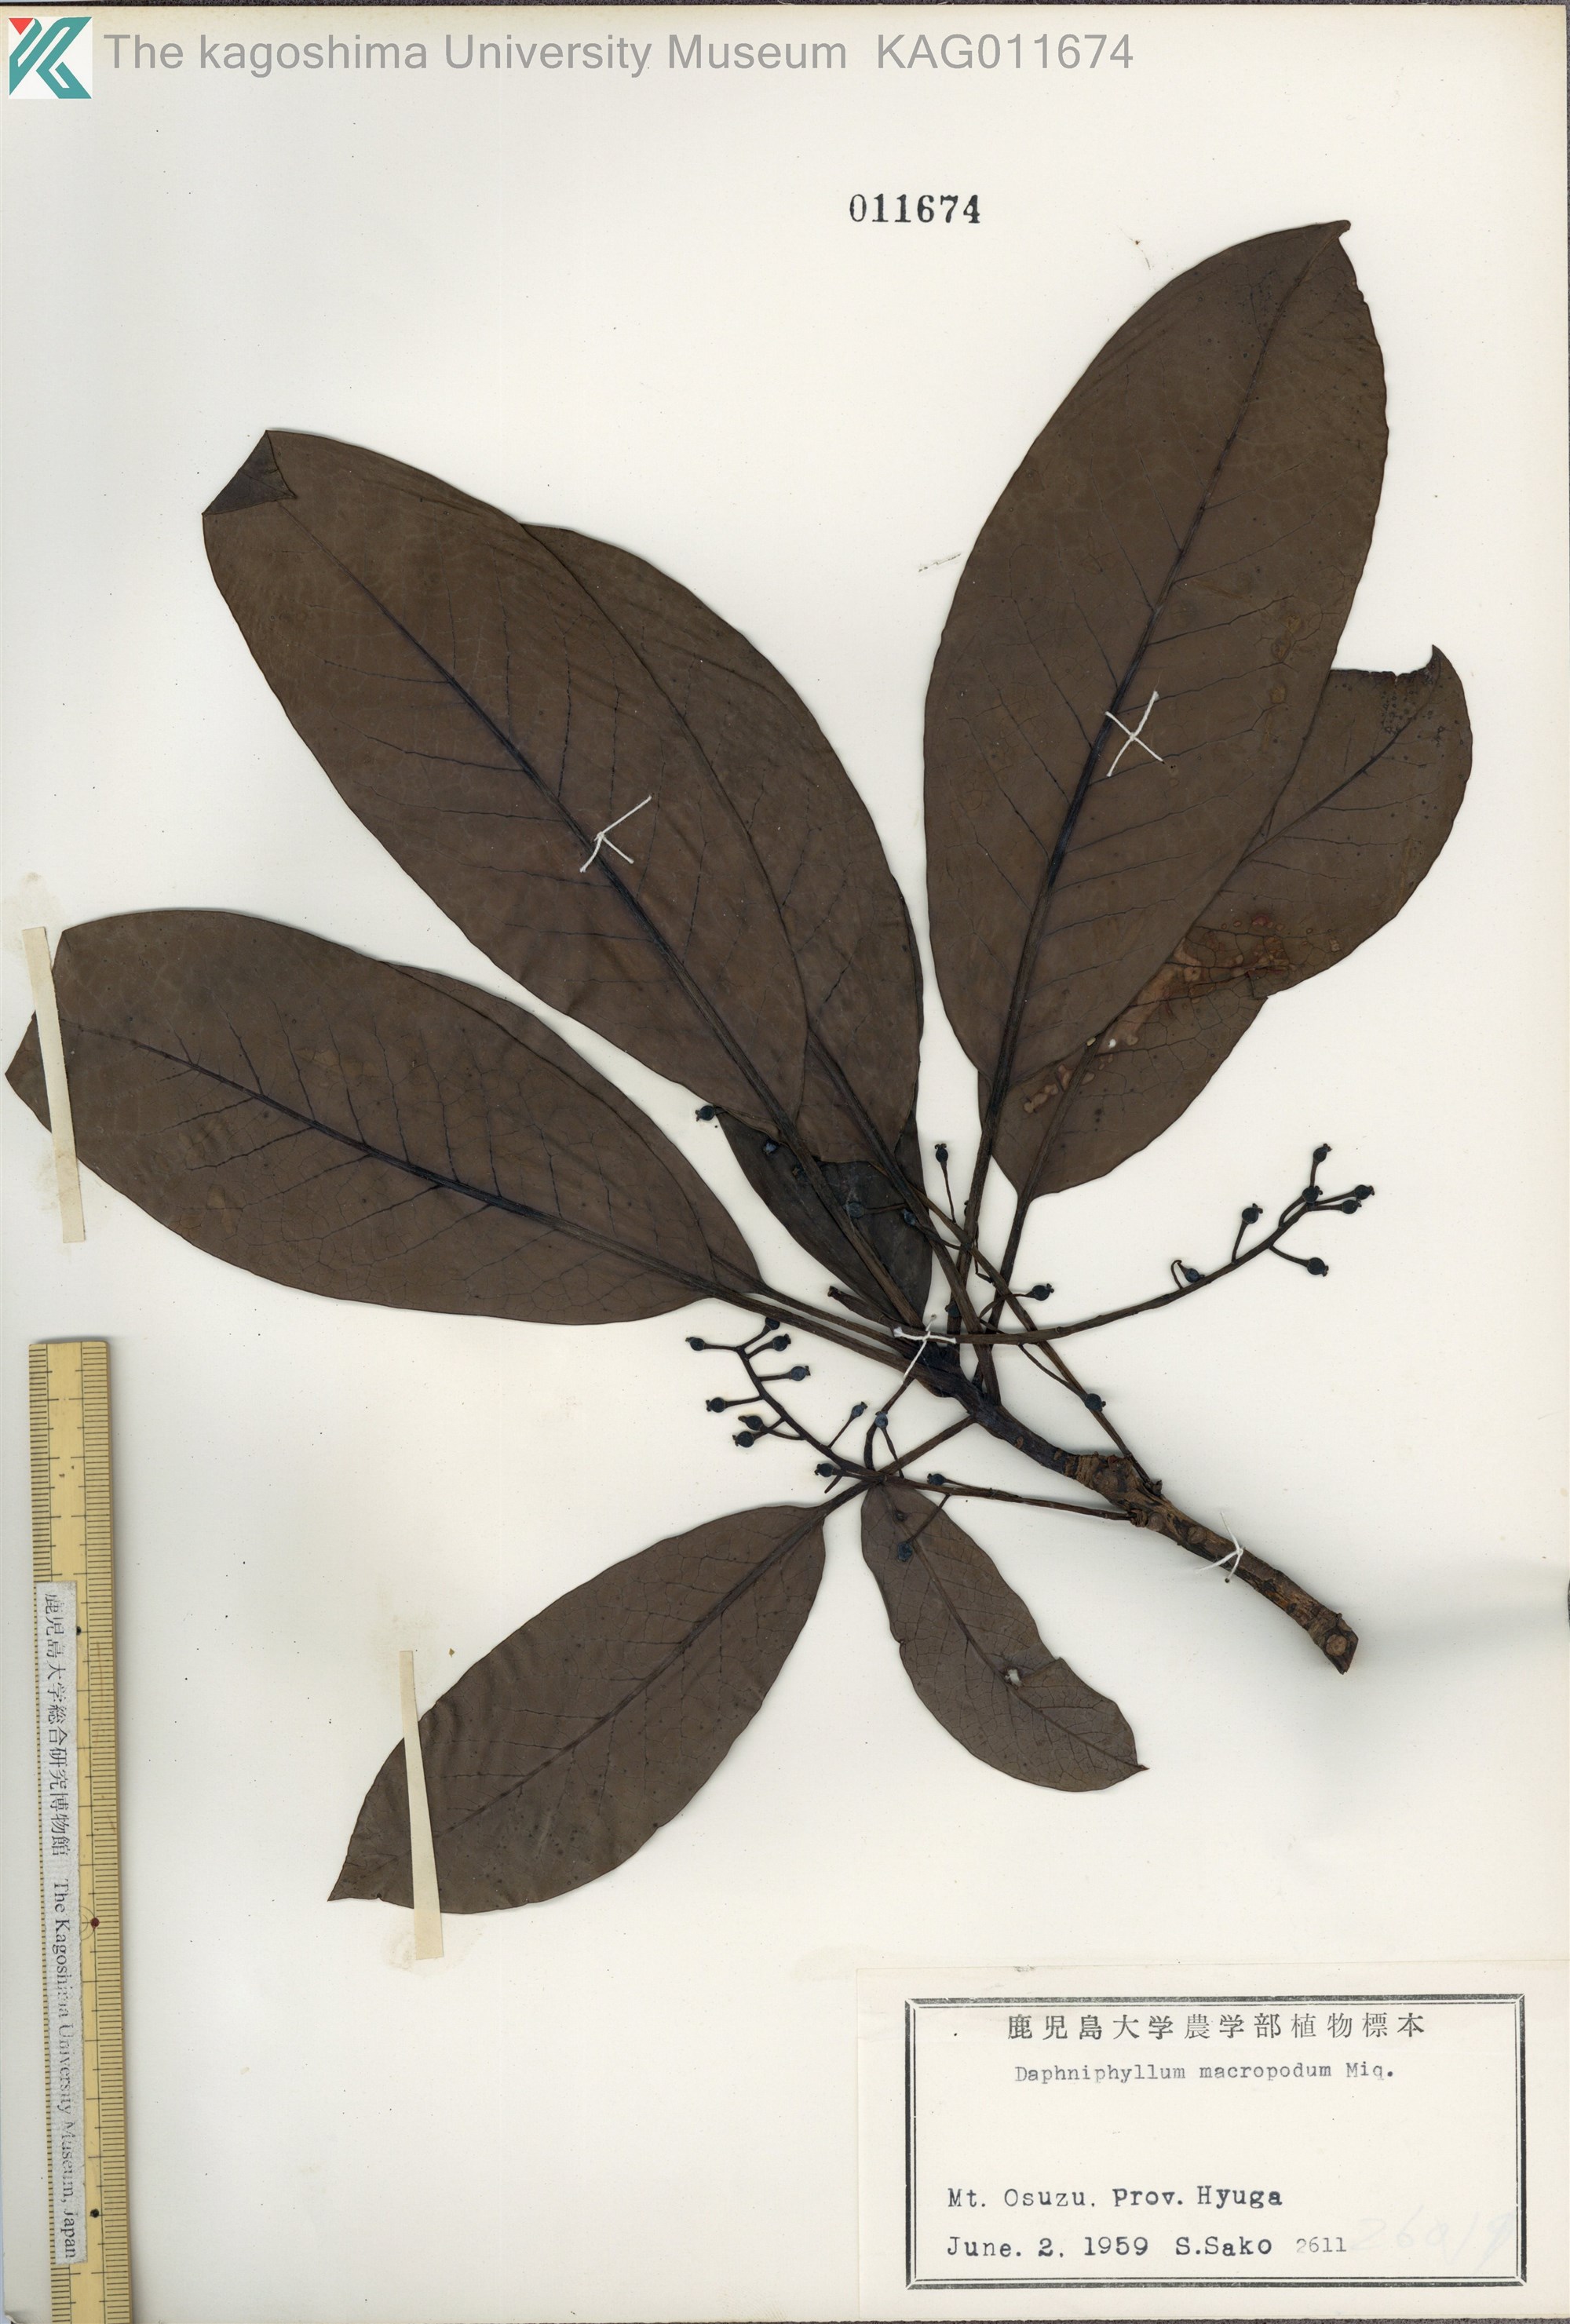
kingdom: Plantae
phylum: Tracheophyta
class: Magnoliopsida
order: Saxifragales
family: Daphniphyllaceae
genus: Daphniphyllum
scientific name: Daphniphyllum macropodum
